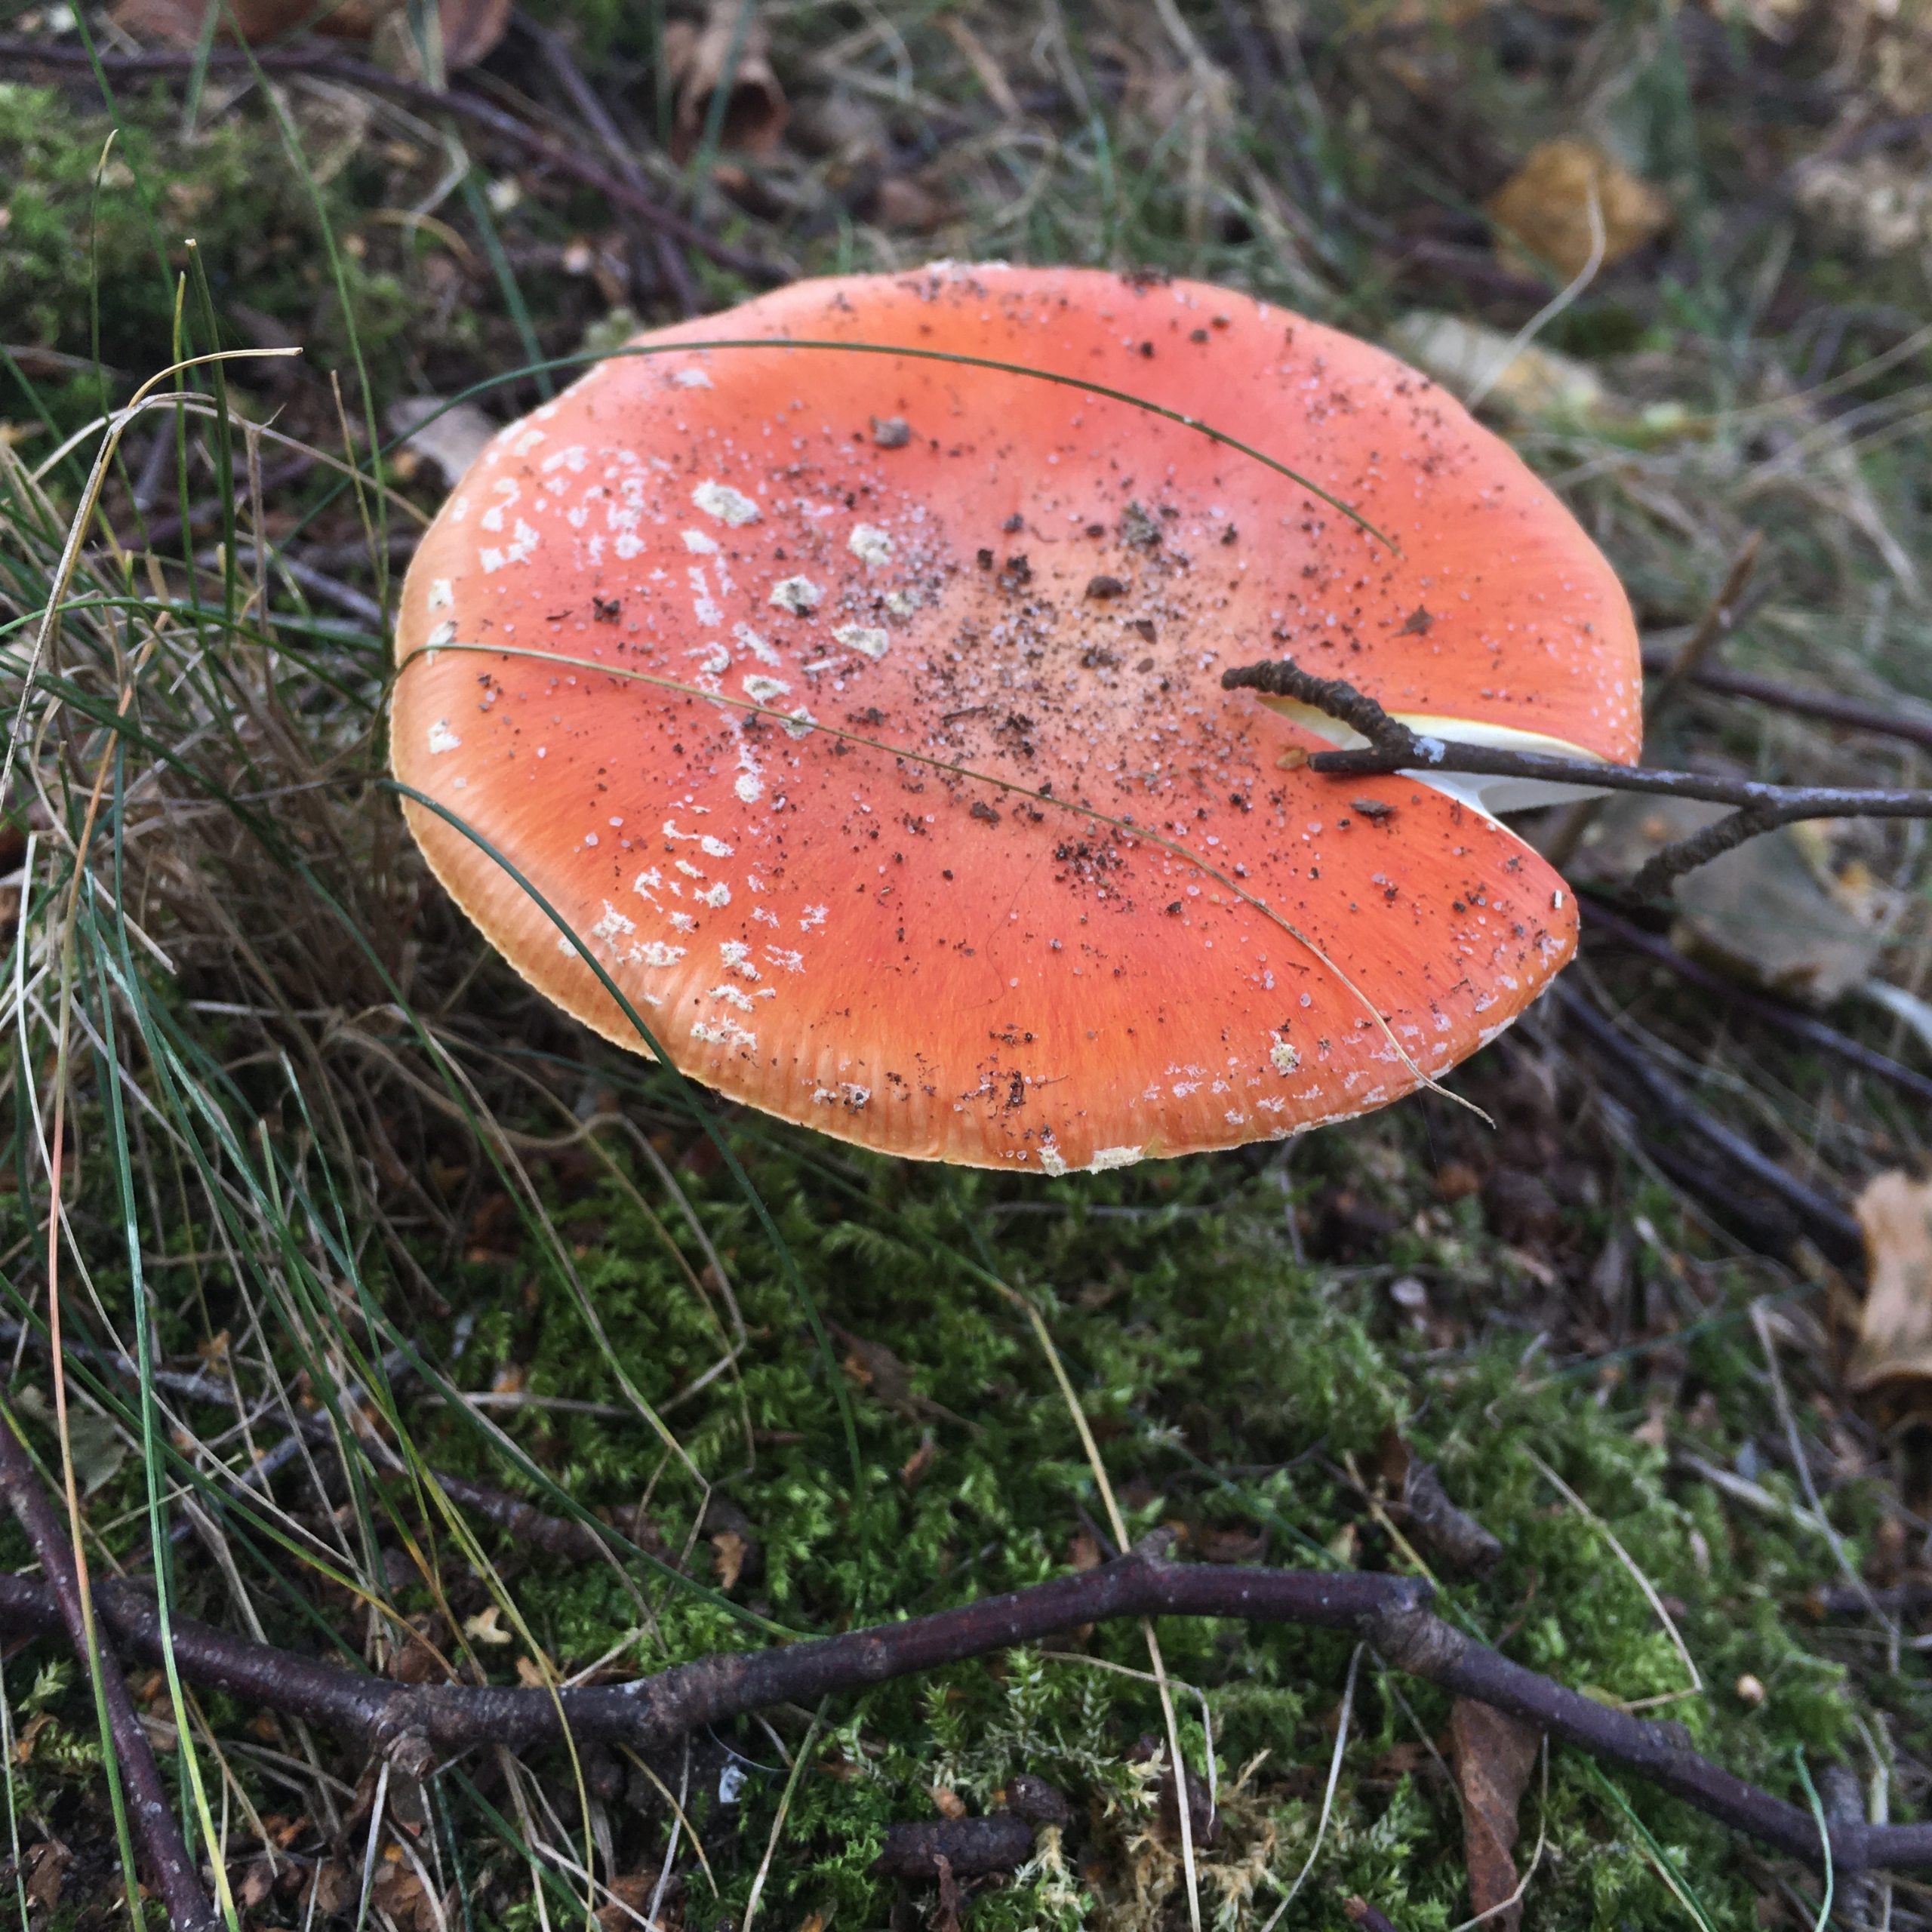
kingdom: Fungi
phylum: Basidiomycota
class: Agaricomycetes
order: Agaricales
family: Amanitaceae
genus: Amanita
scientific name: Amanita muscaria
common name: Rød fluesvamp
